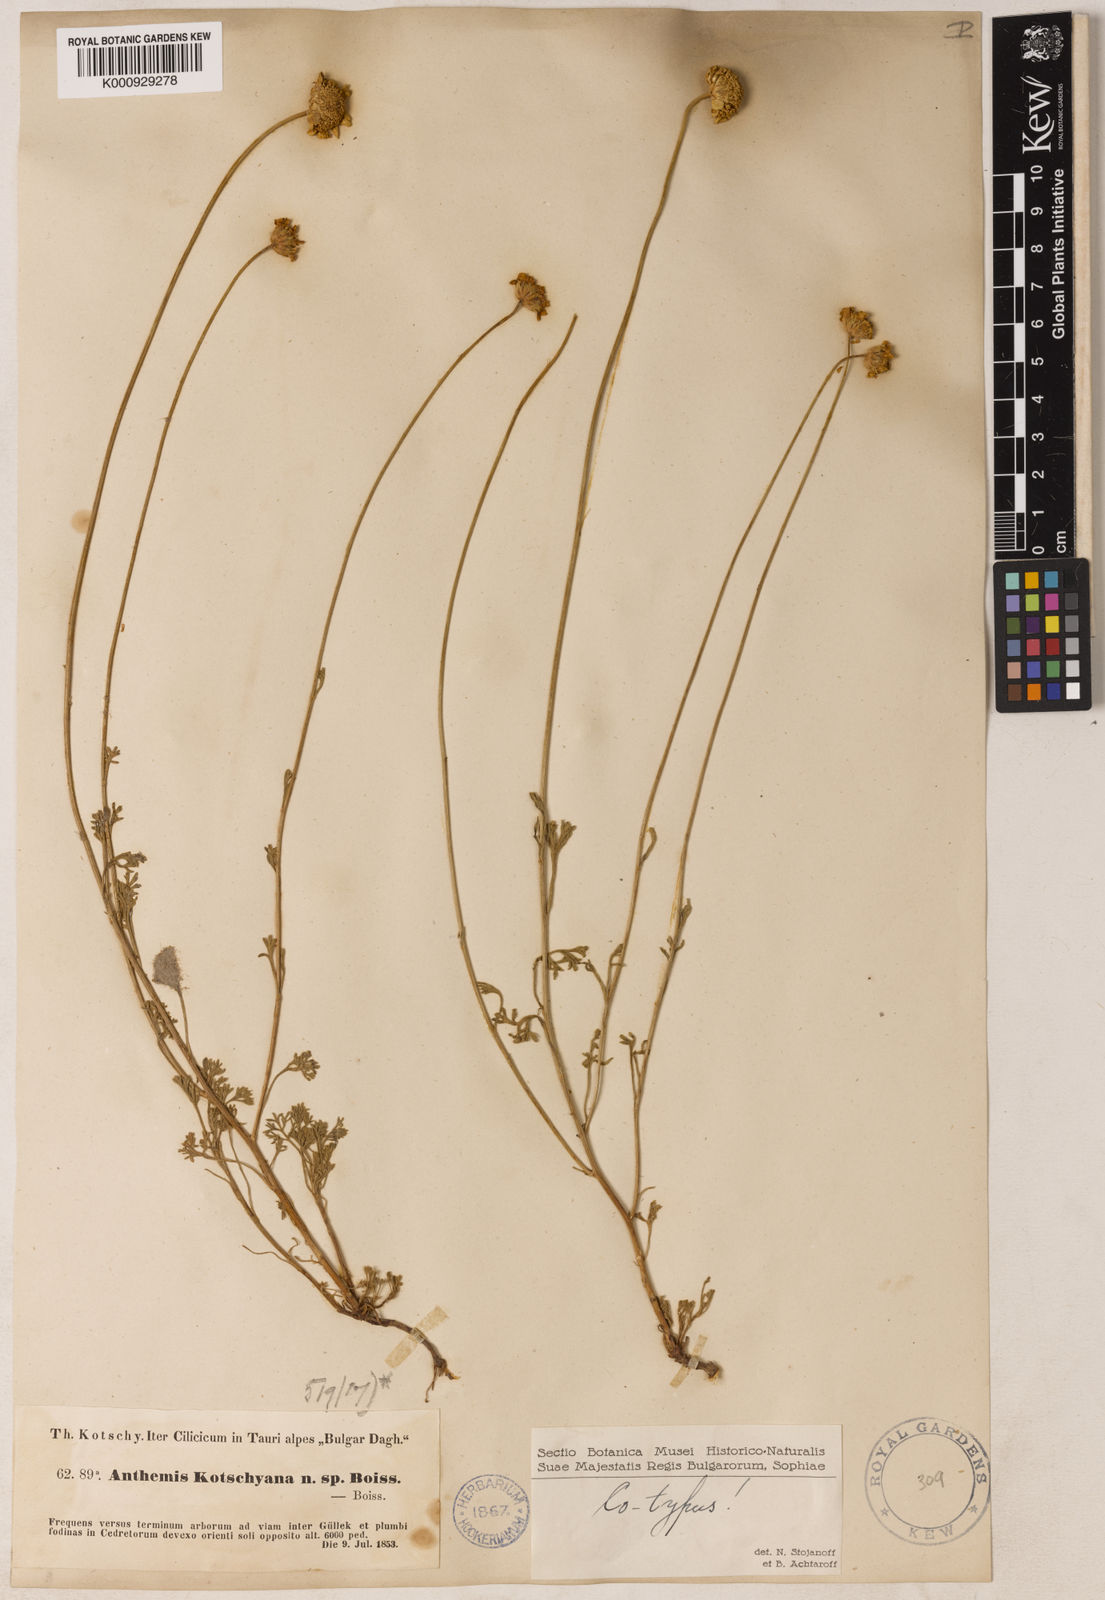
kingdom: Plantae
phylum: Tracheophyta
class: Magnoliopsida
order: Asterales
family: Asteraceae
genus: Anthemis
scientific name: Anthemis kotschyana
